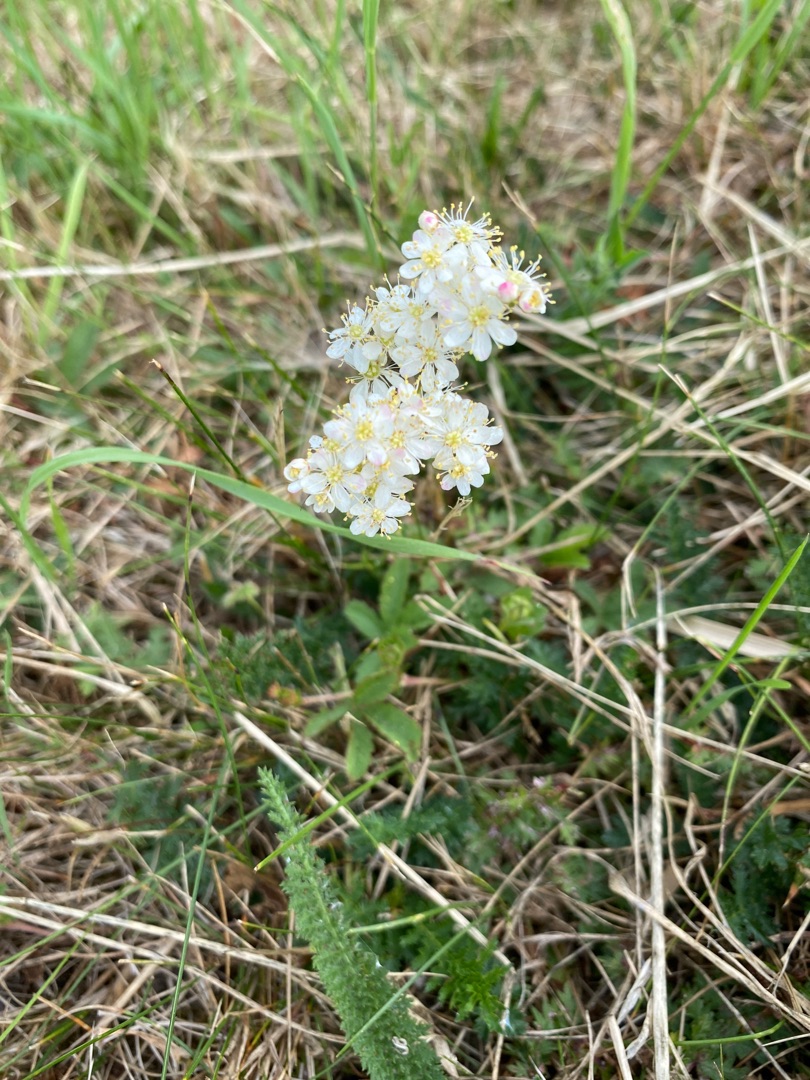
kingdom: Plantae
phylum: Tracheophyta
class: Magnoliopsida
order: Rosales
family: Rosaceae
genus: Filipendula
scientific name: Filipendula vulgaris
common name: Knoldet mjødurt
